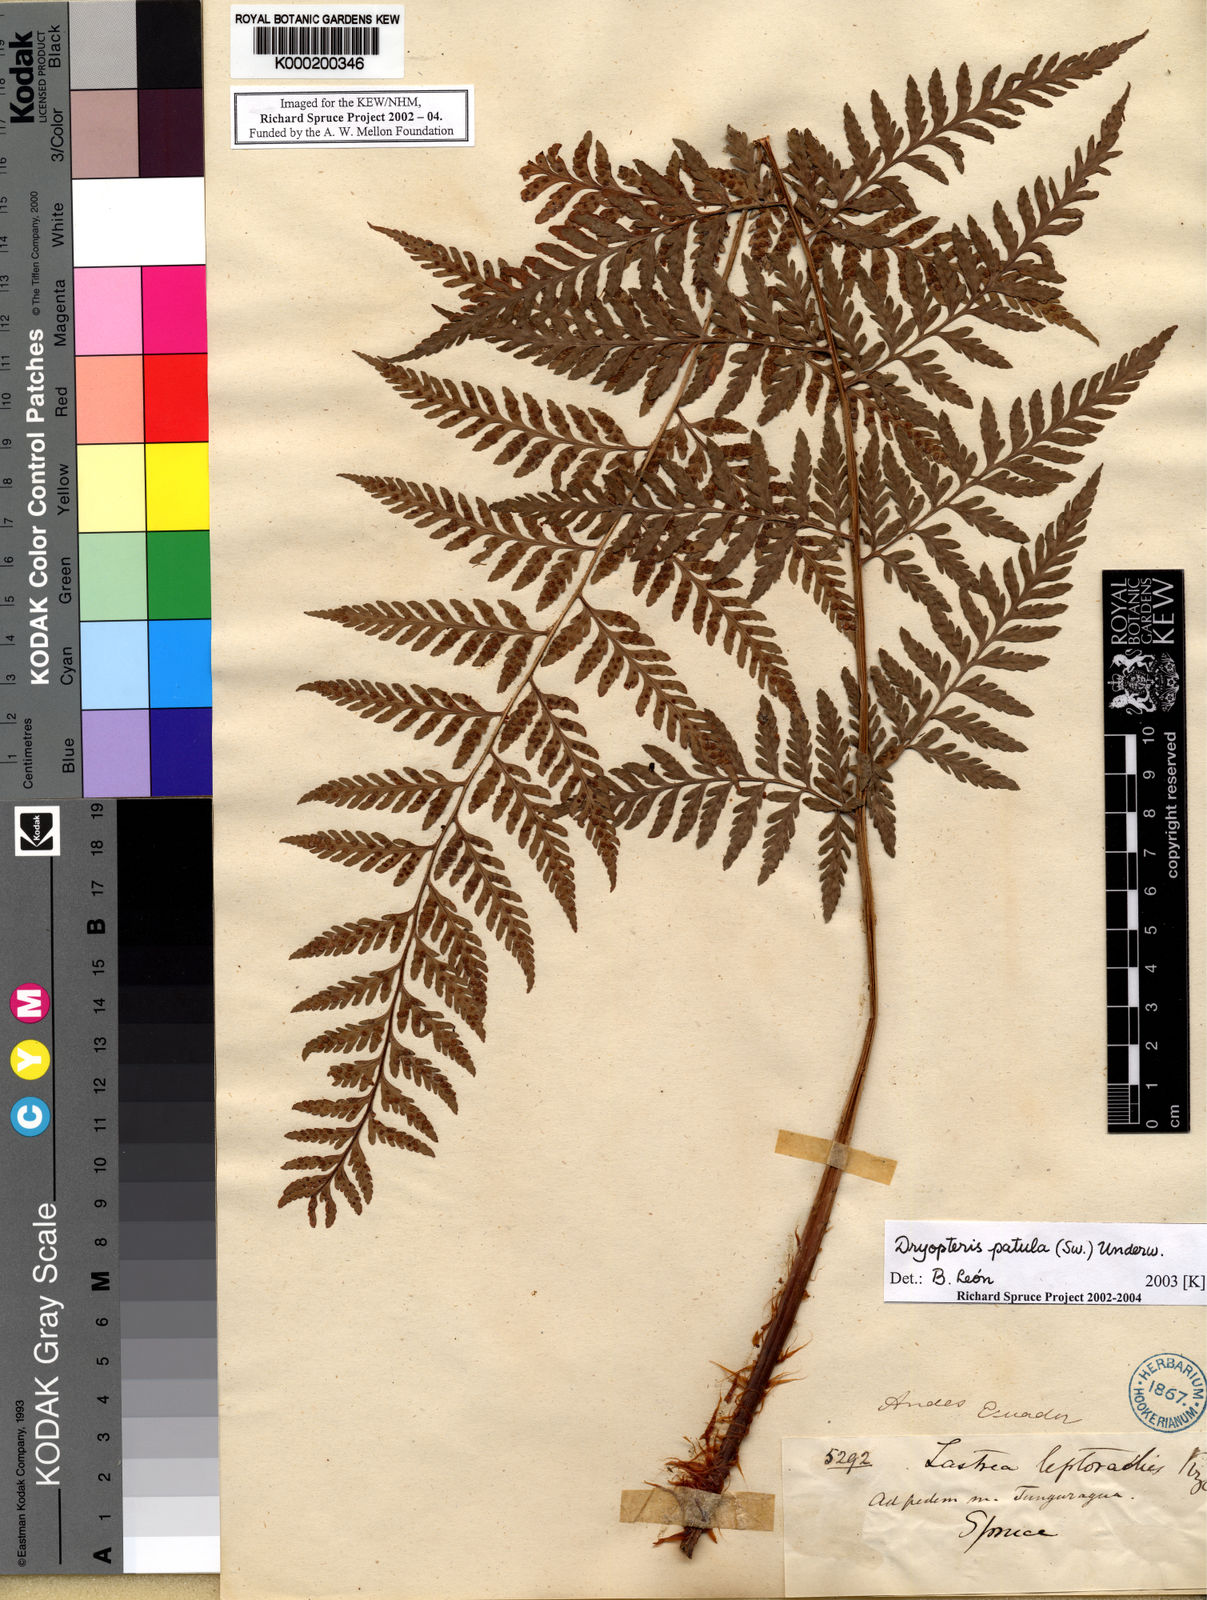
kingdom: Plantae
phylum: Tracheophyta
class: Polypodiopsida
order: Polypodiales
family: Dryopteridaceae
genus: Dryopteris
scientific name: Dryopteris patula
